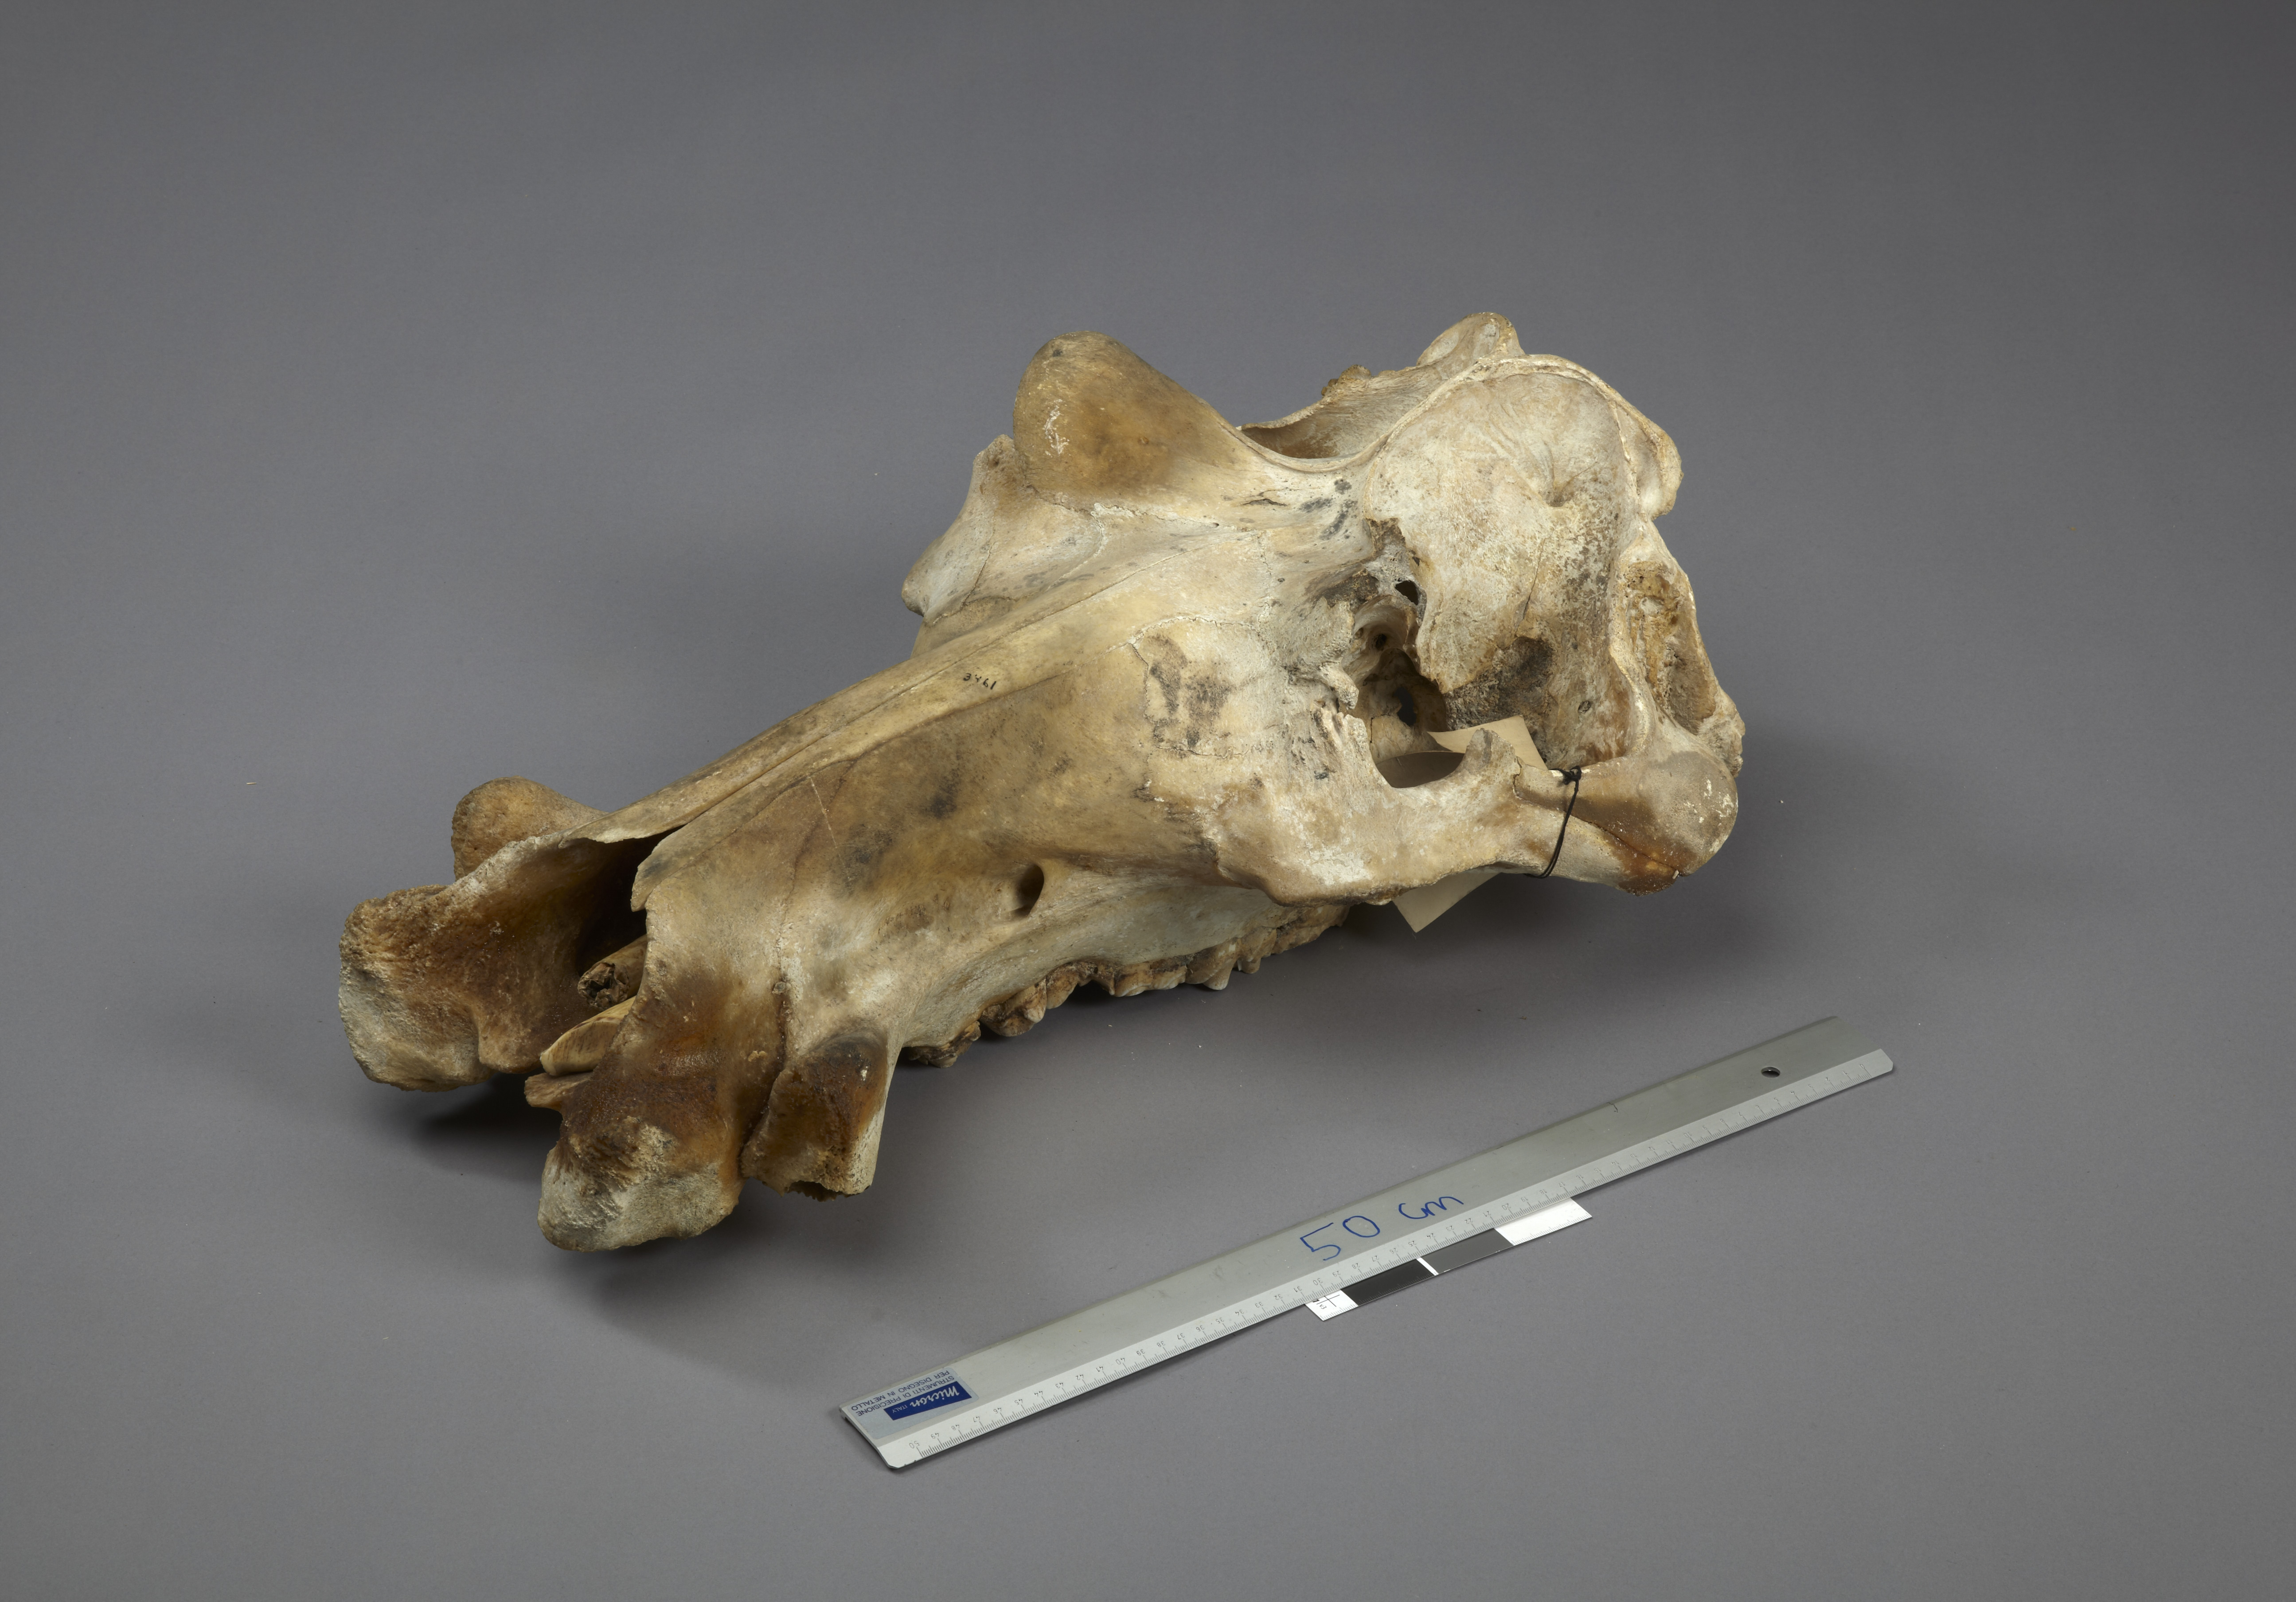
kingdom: Animalia
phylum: Chordata
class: Mammalia
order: Artiodactyla
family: Hippopotamidae
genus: Hippopotamus
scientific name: Hippopotamus amphibius
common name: Common hippopotamus
